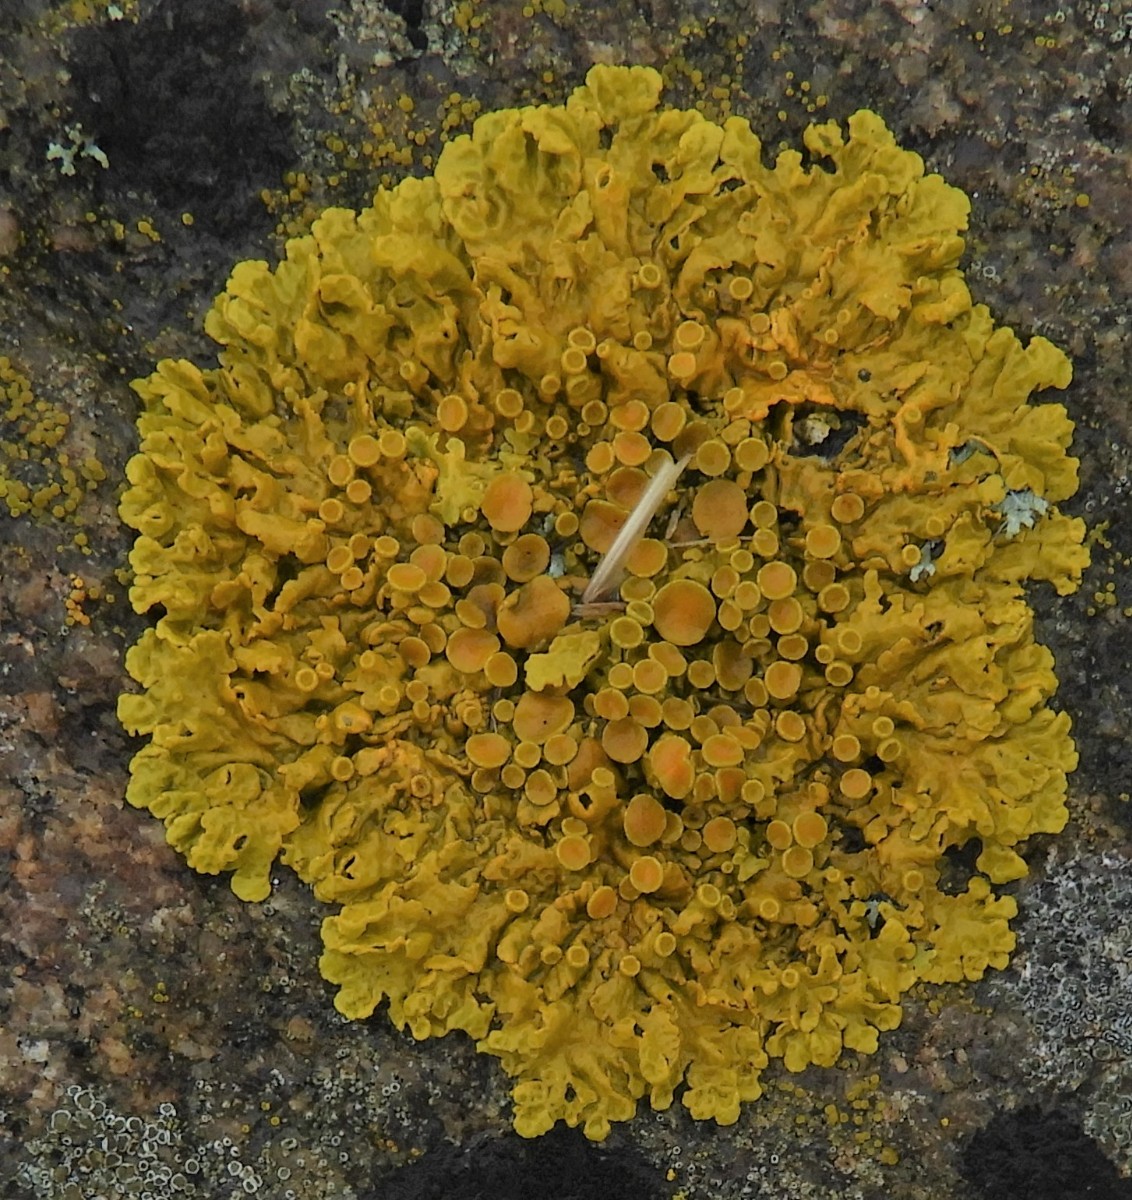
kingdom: Fungi
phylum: Ascomycota
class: Lecanoromycetes
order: Teloschistales
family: Teloschistaceae
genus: Xanthoria
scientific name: Xanthoria parietina
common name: almindelig væggelav
